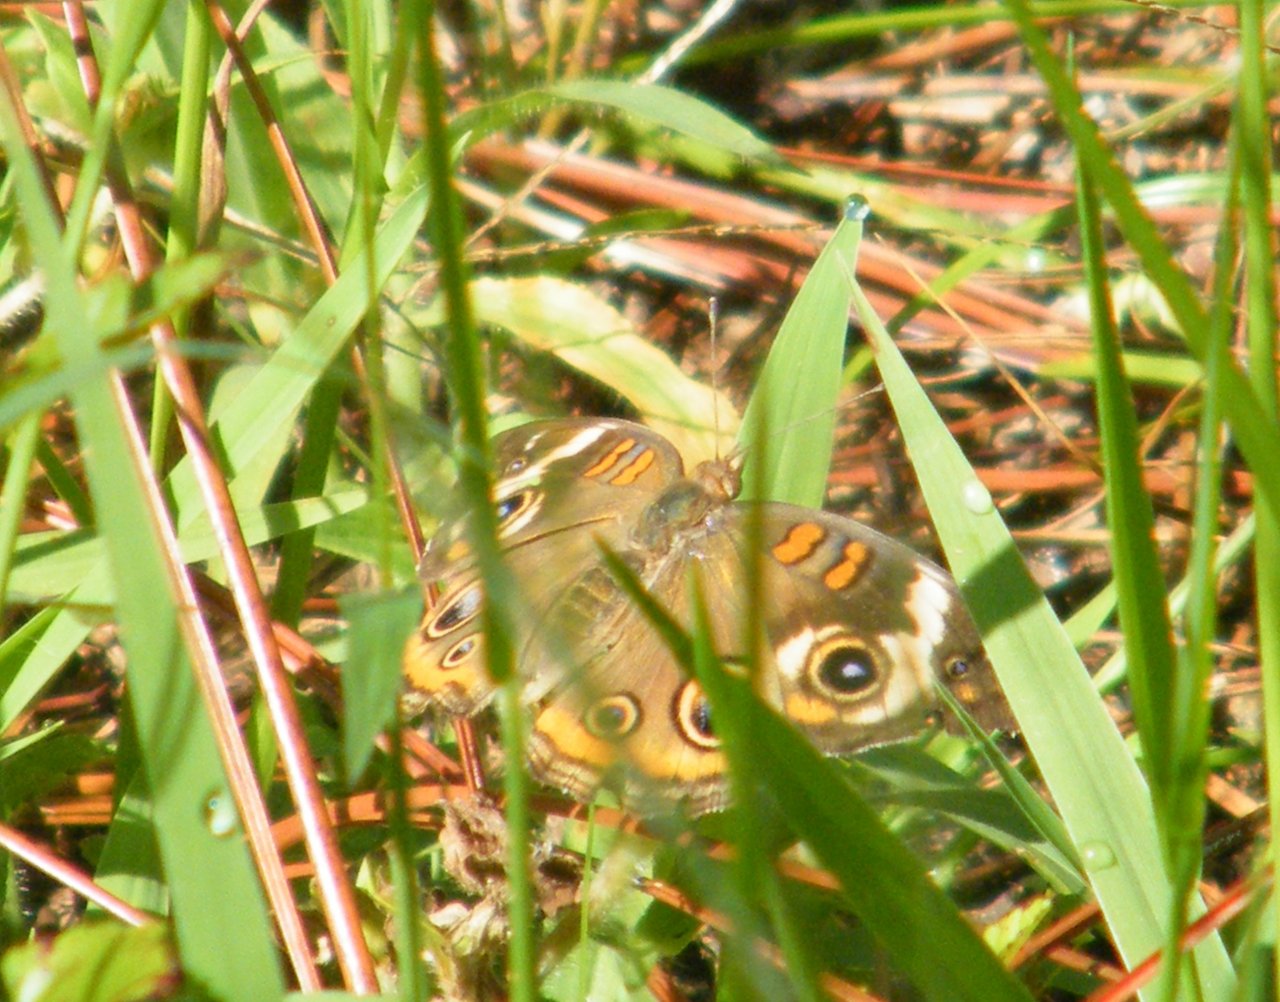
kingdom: Animalia
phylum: Arthropoda
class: Insecta
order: Lepidoptera
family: Nymphalidae
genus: Junonia
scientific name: Junonia coenia
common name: Common Buckeye
